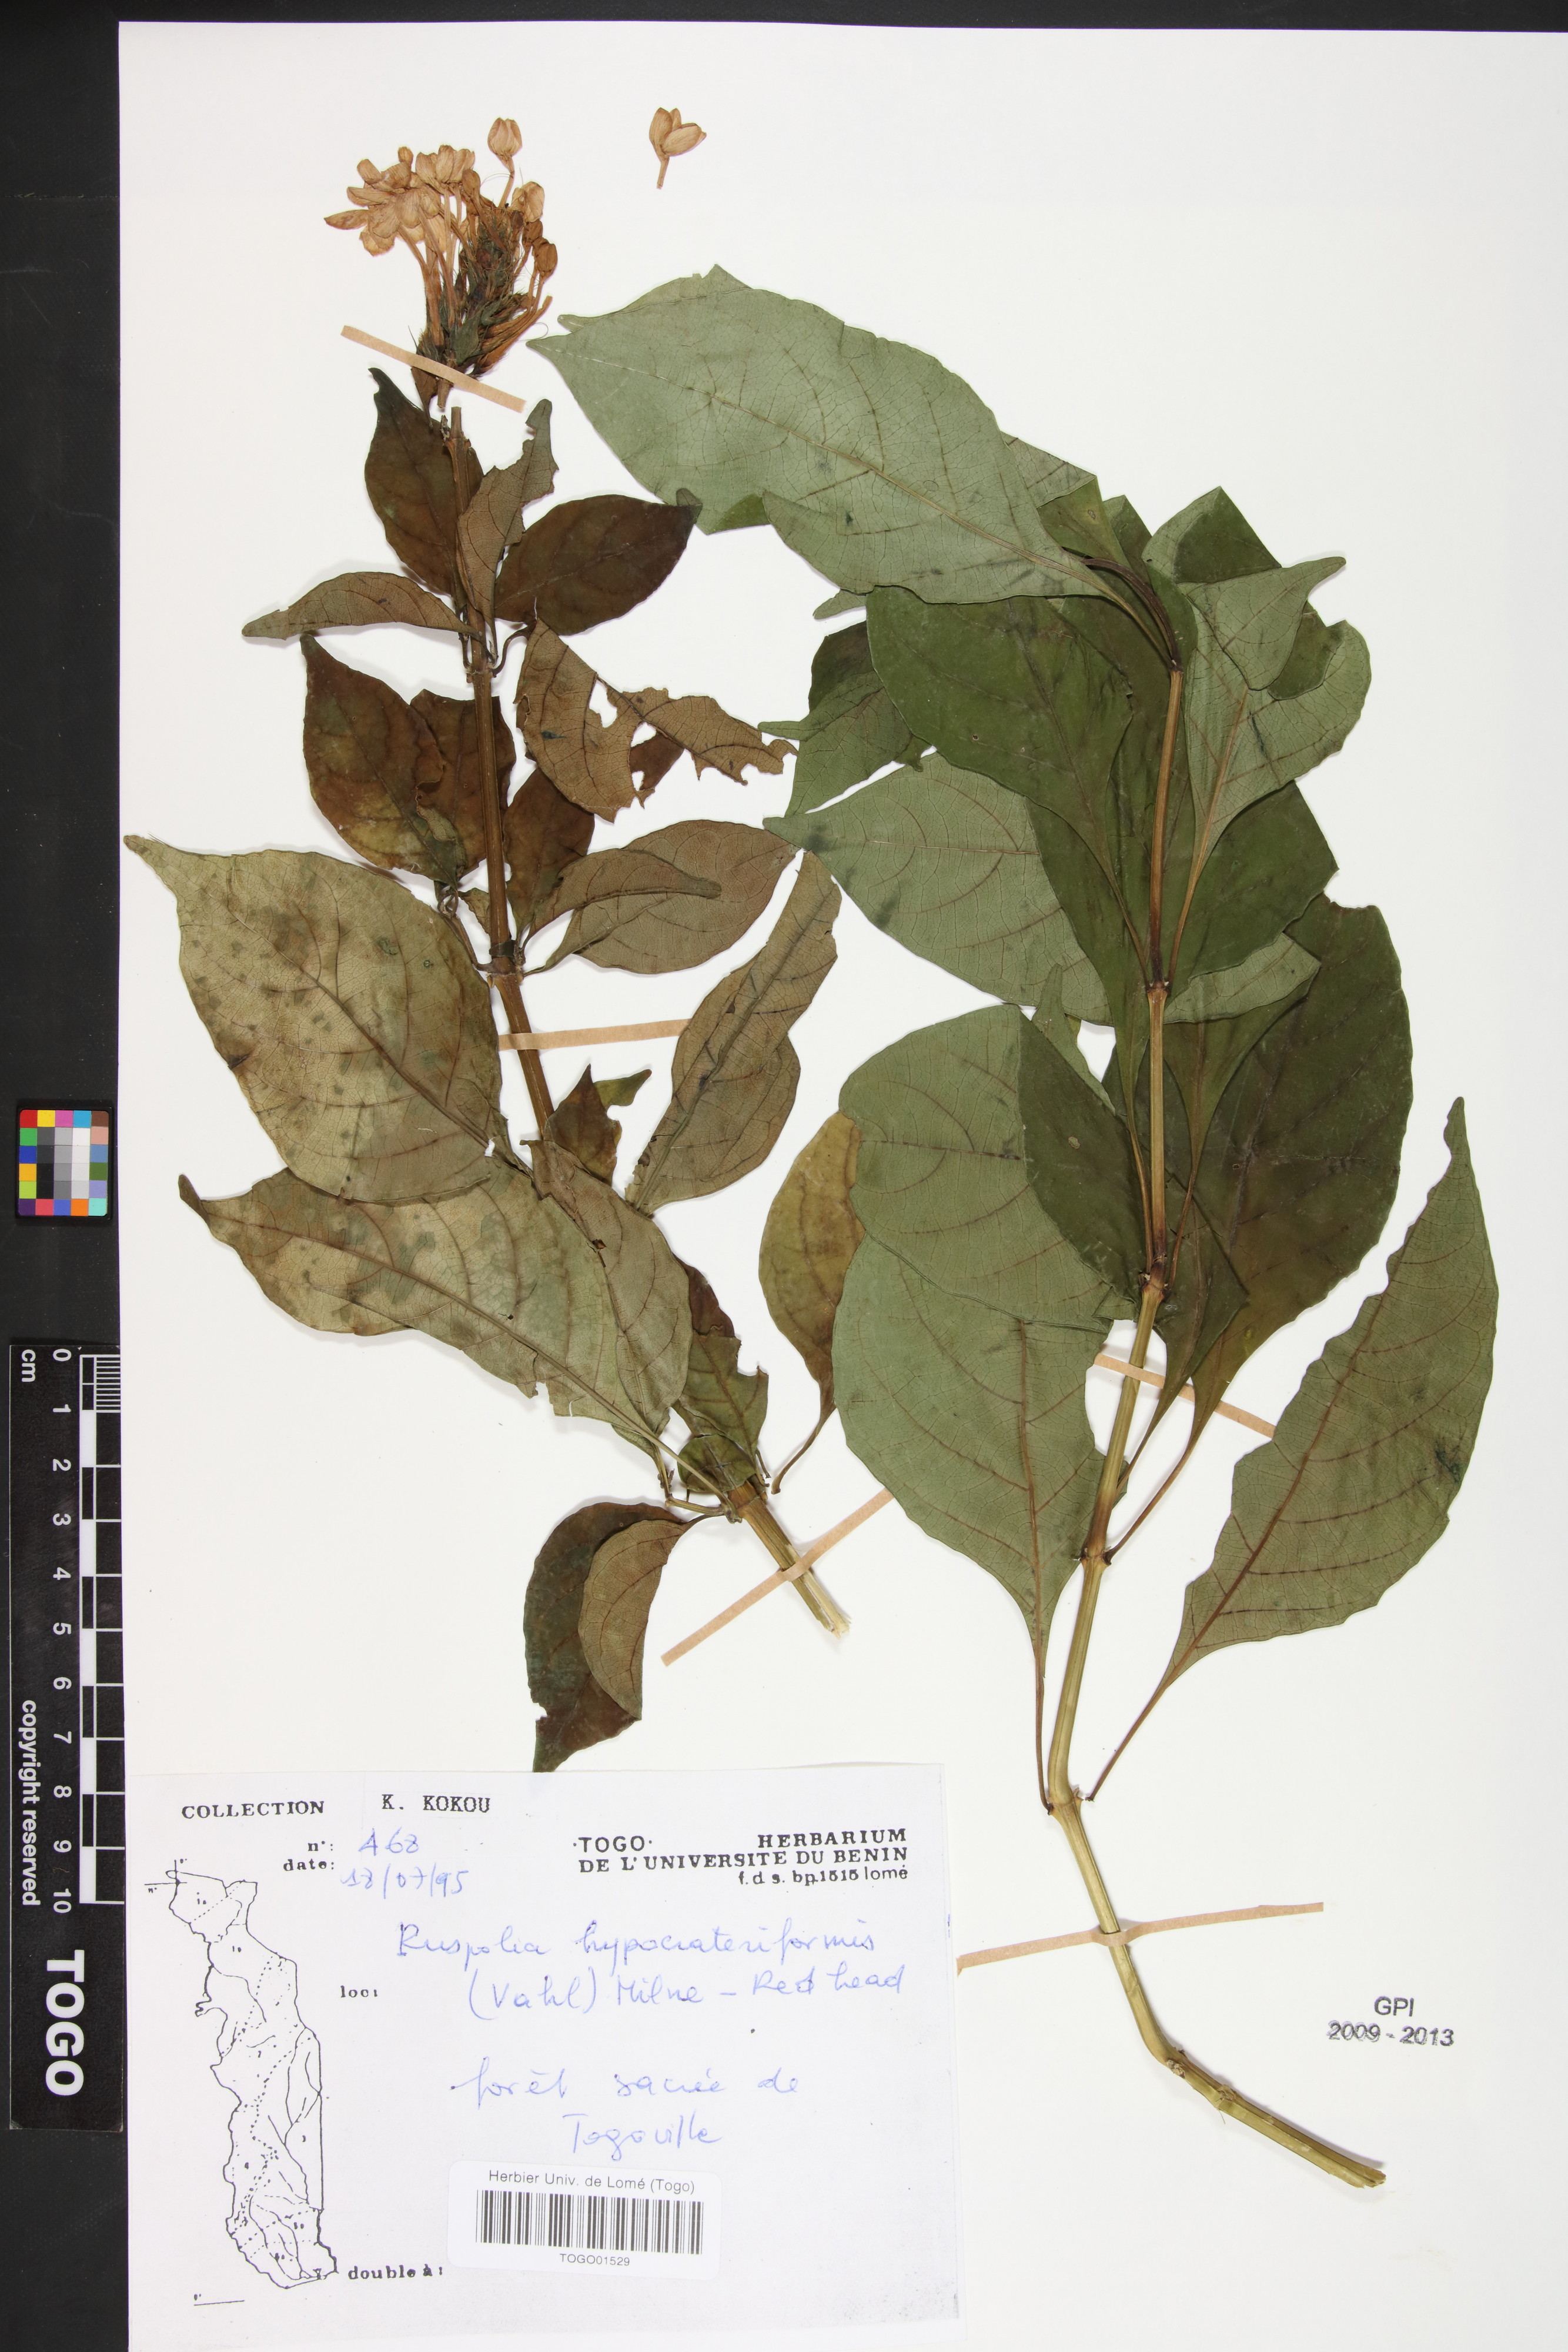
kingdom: Plantae
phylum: Tracheophyta
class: Magnoliopsida
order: Lamiales
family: Acanthaceae
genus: Ruspolia
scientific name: Ruspolia hypocrateriformis
